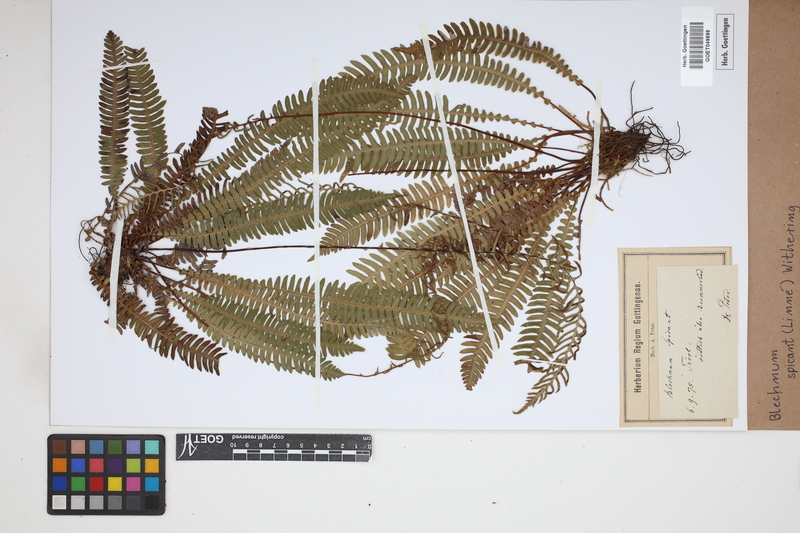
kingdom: Plantae
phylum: Tracheophyta
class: Polypodiopsida
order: Polypodiales
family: Blechnaceae
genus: Struthiopteris
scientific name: Struthiopteris spicant
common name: Deer fern
